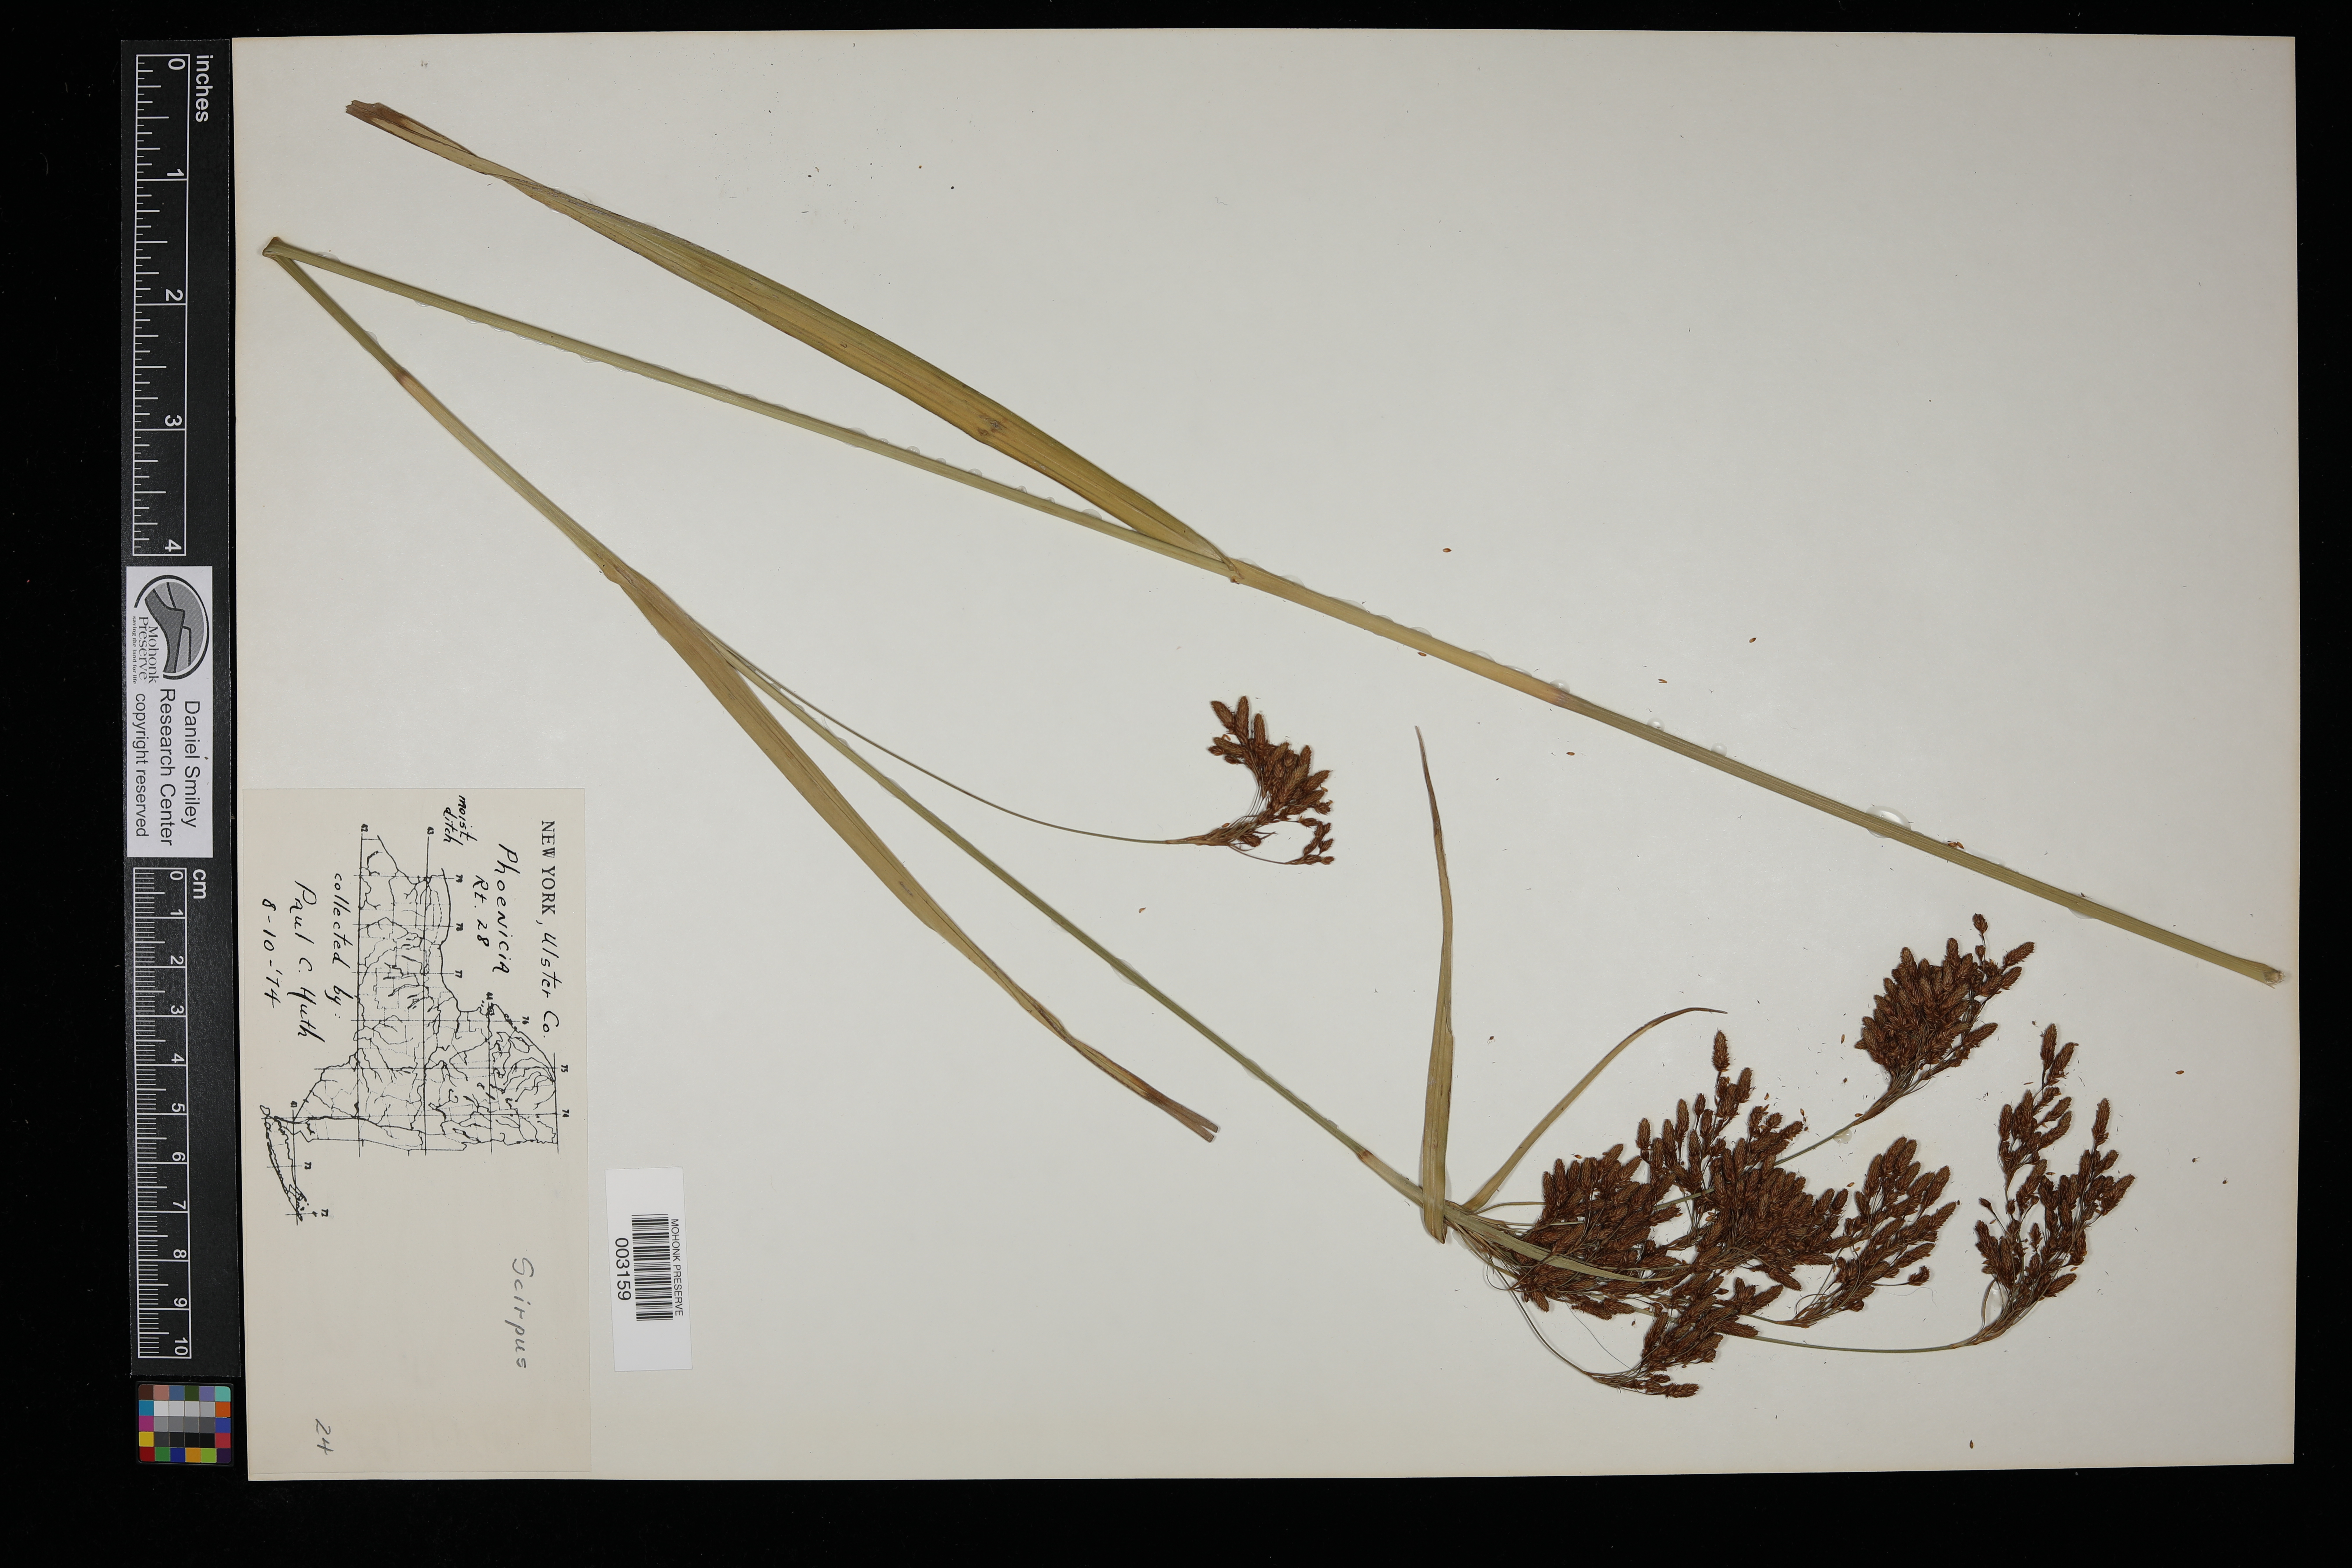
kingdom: Plantae
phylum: Tracheophyta
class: Liliopsida
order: Poales
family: Cyperaceae
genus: Scirpus
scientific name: Scirpus
